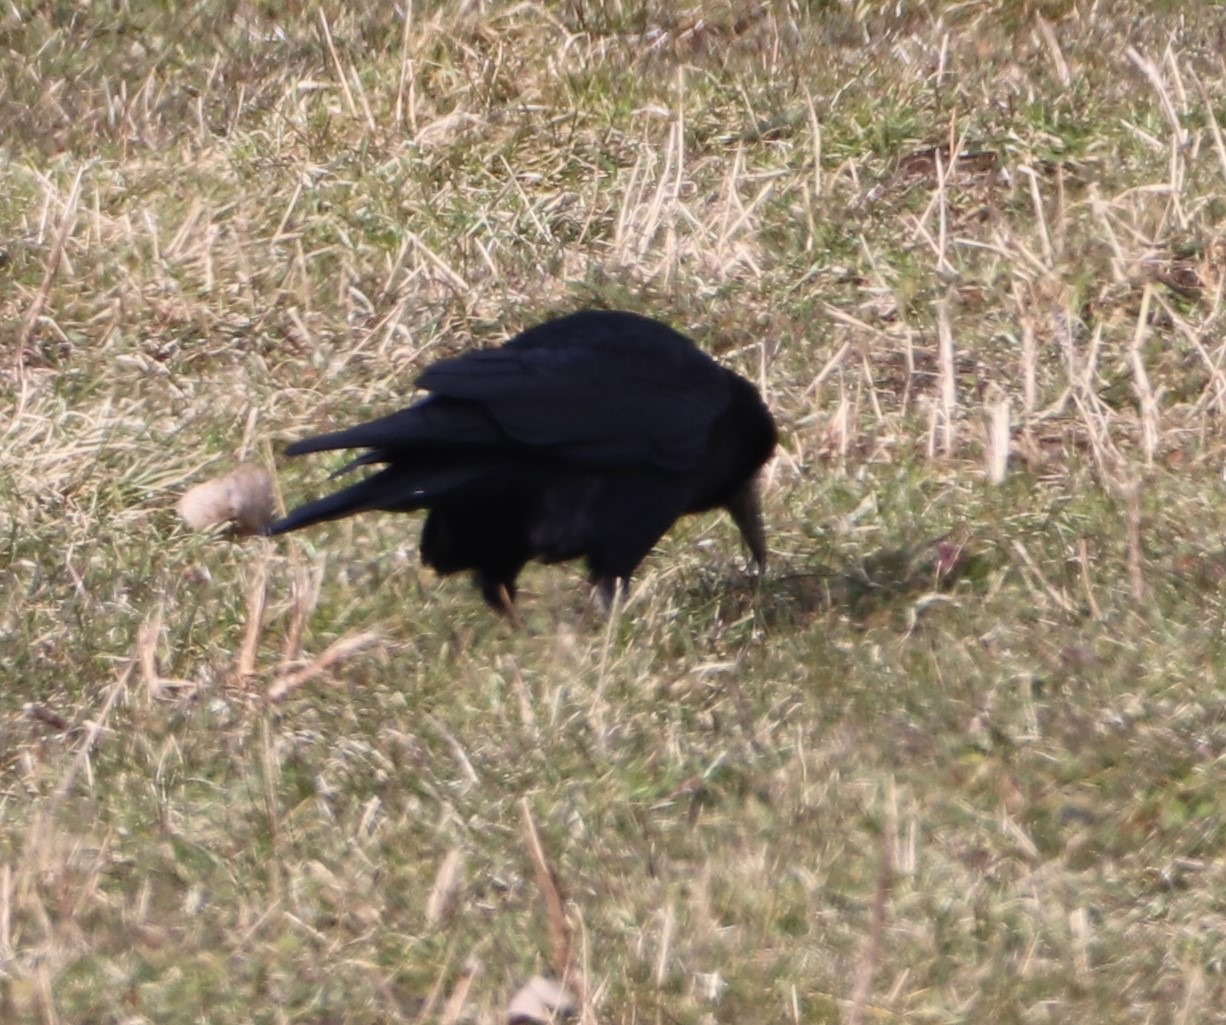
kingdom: Animalia
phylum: Chordata
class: Aves
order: Passeriformes
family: Corvidae
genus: Corvus
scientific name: Corvus frugilegus
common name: Råge
